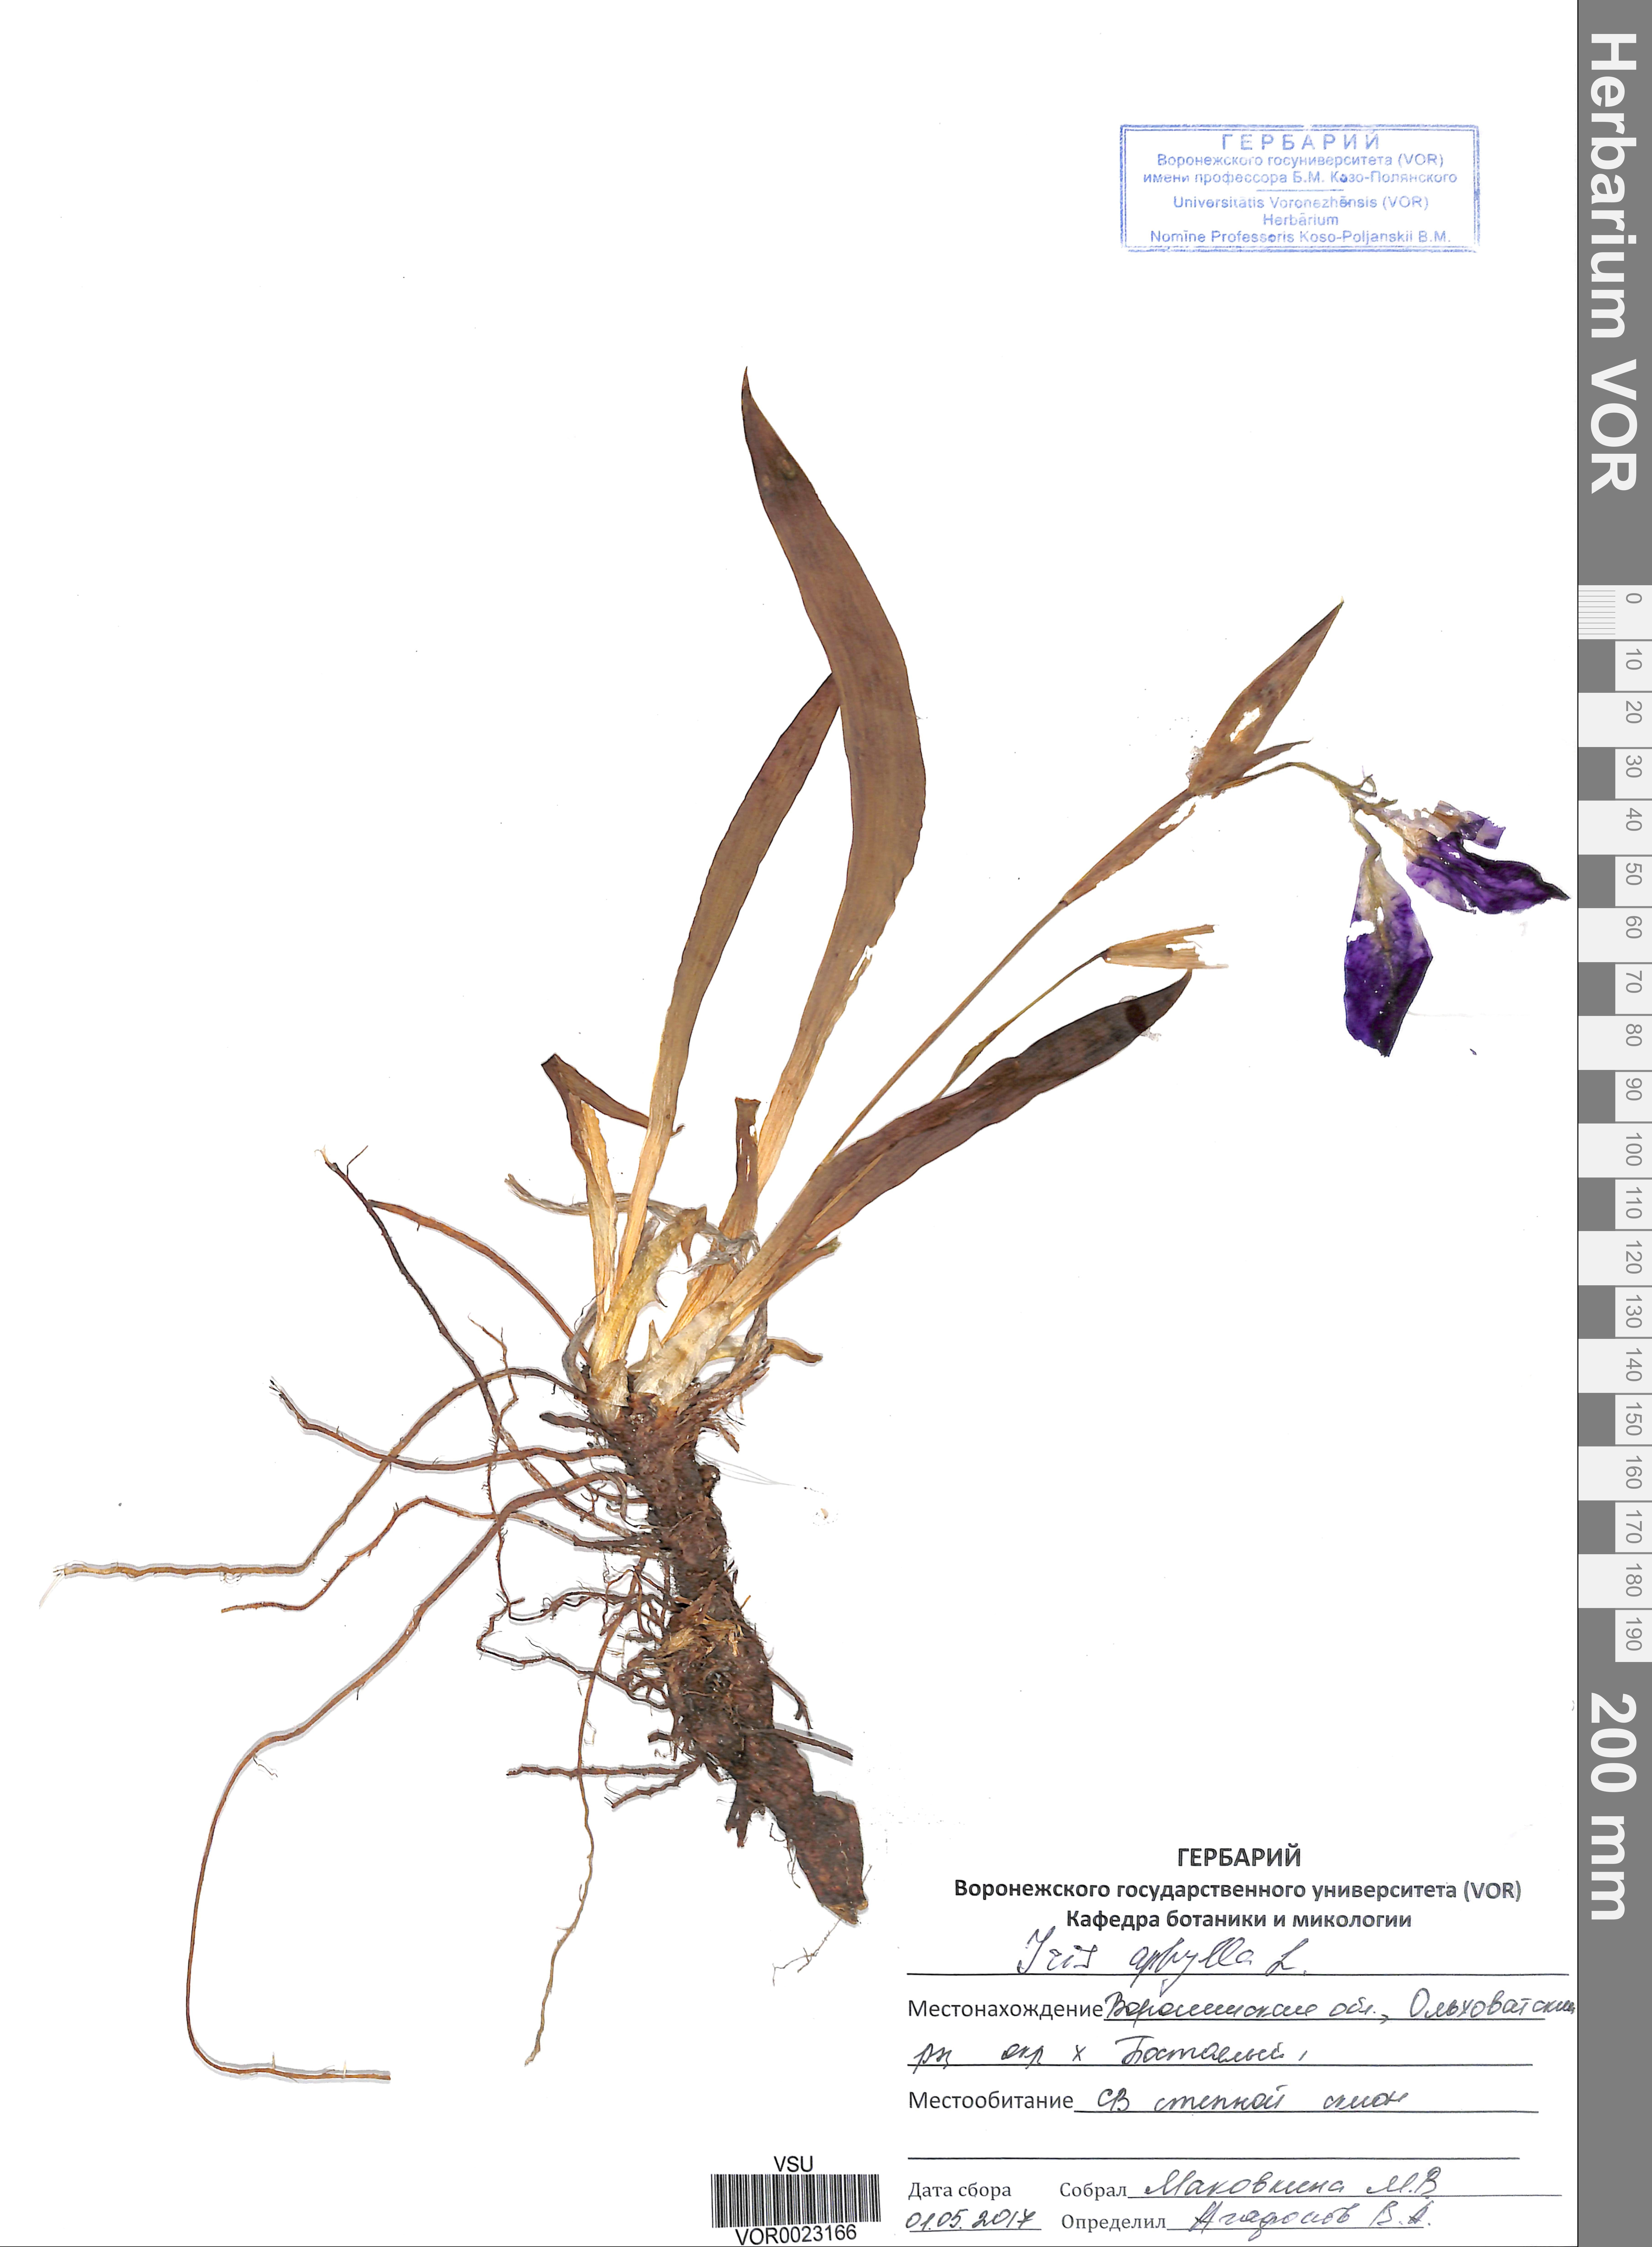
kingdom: Plantae
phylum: Tracheophyta
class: Liliopsida
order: Asparagales
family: Iridaceae
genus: Iris
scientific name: Iris aphylla
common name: Stool iris
